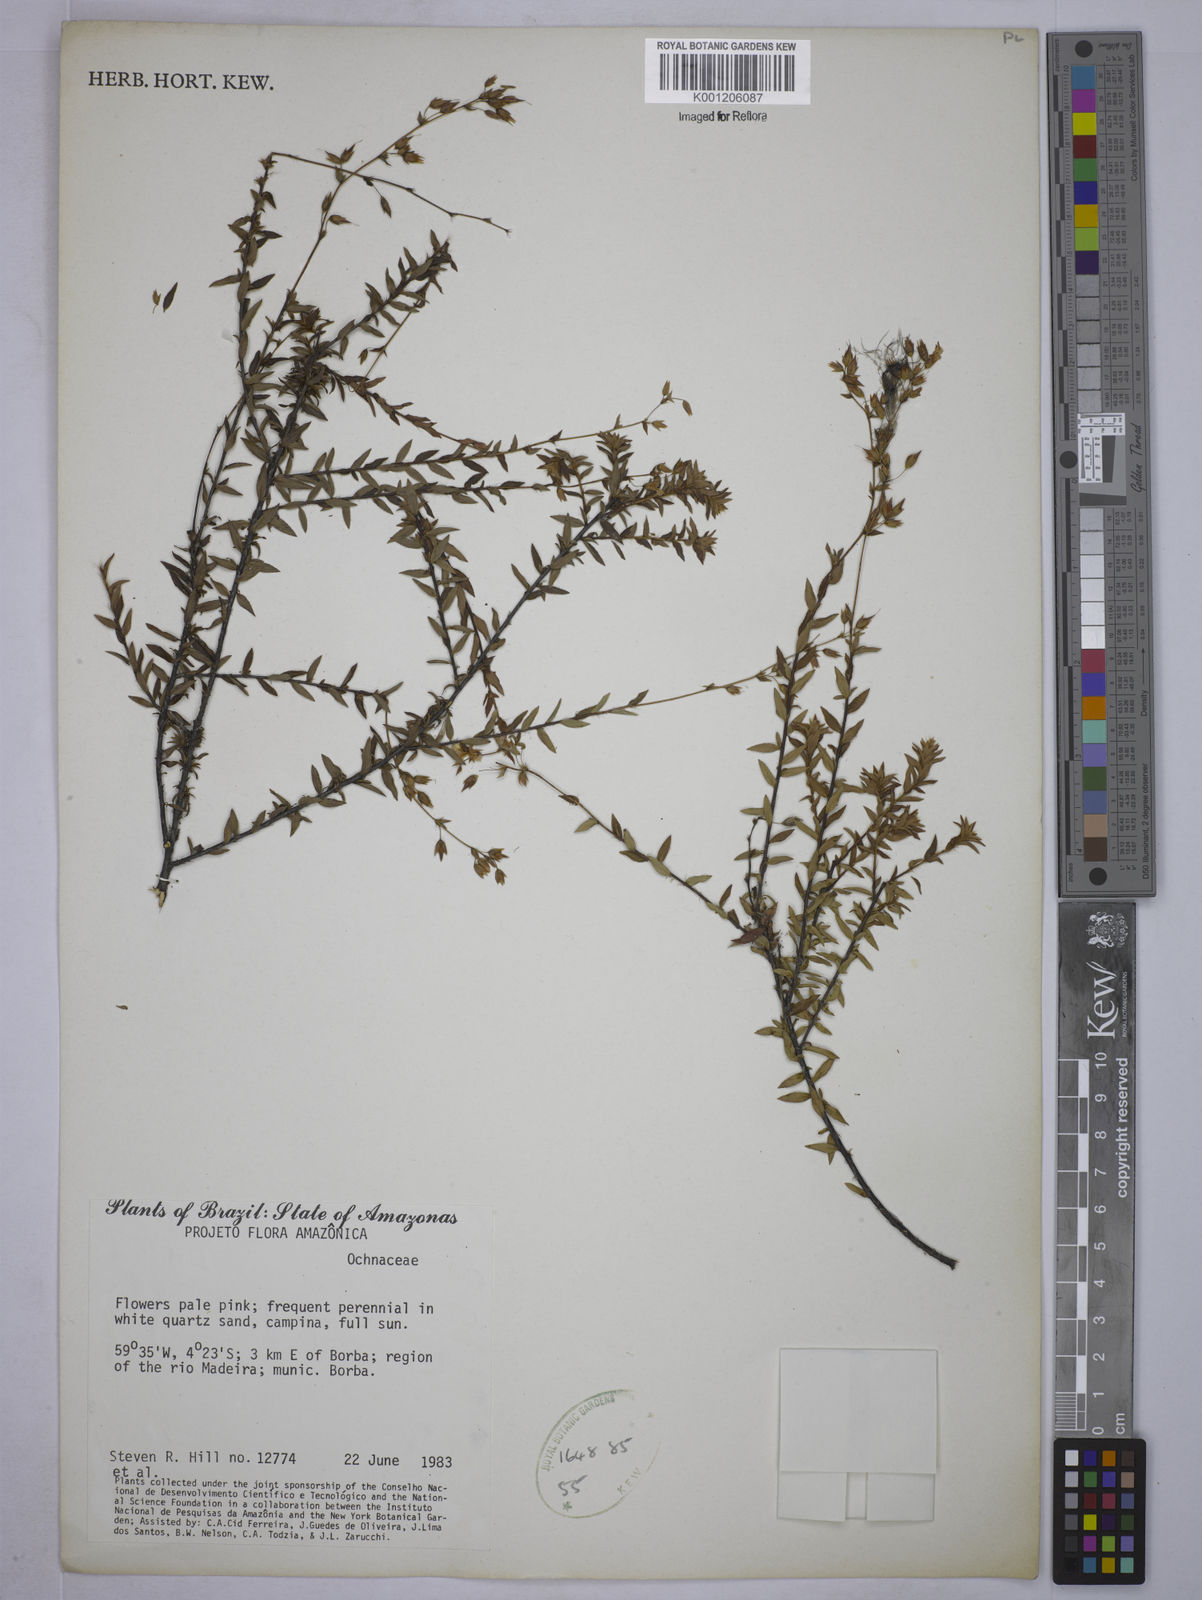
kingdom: Plantae
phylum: Tracheophyta
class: Magnoliopsida
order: Malpighiales
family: Ochnaceae
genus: Sauvagesia
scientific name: Sauvagesia sprengelii
